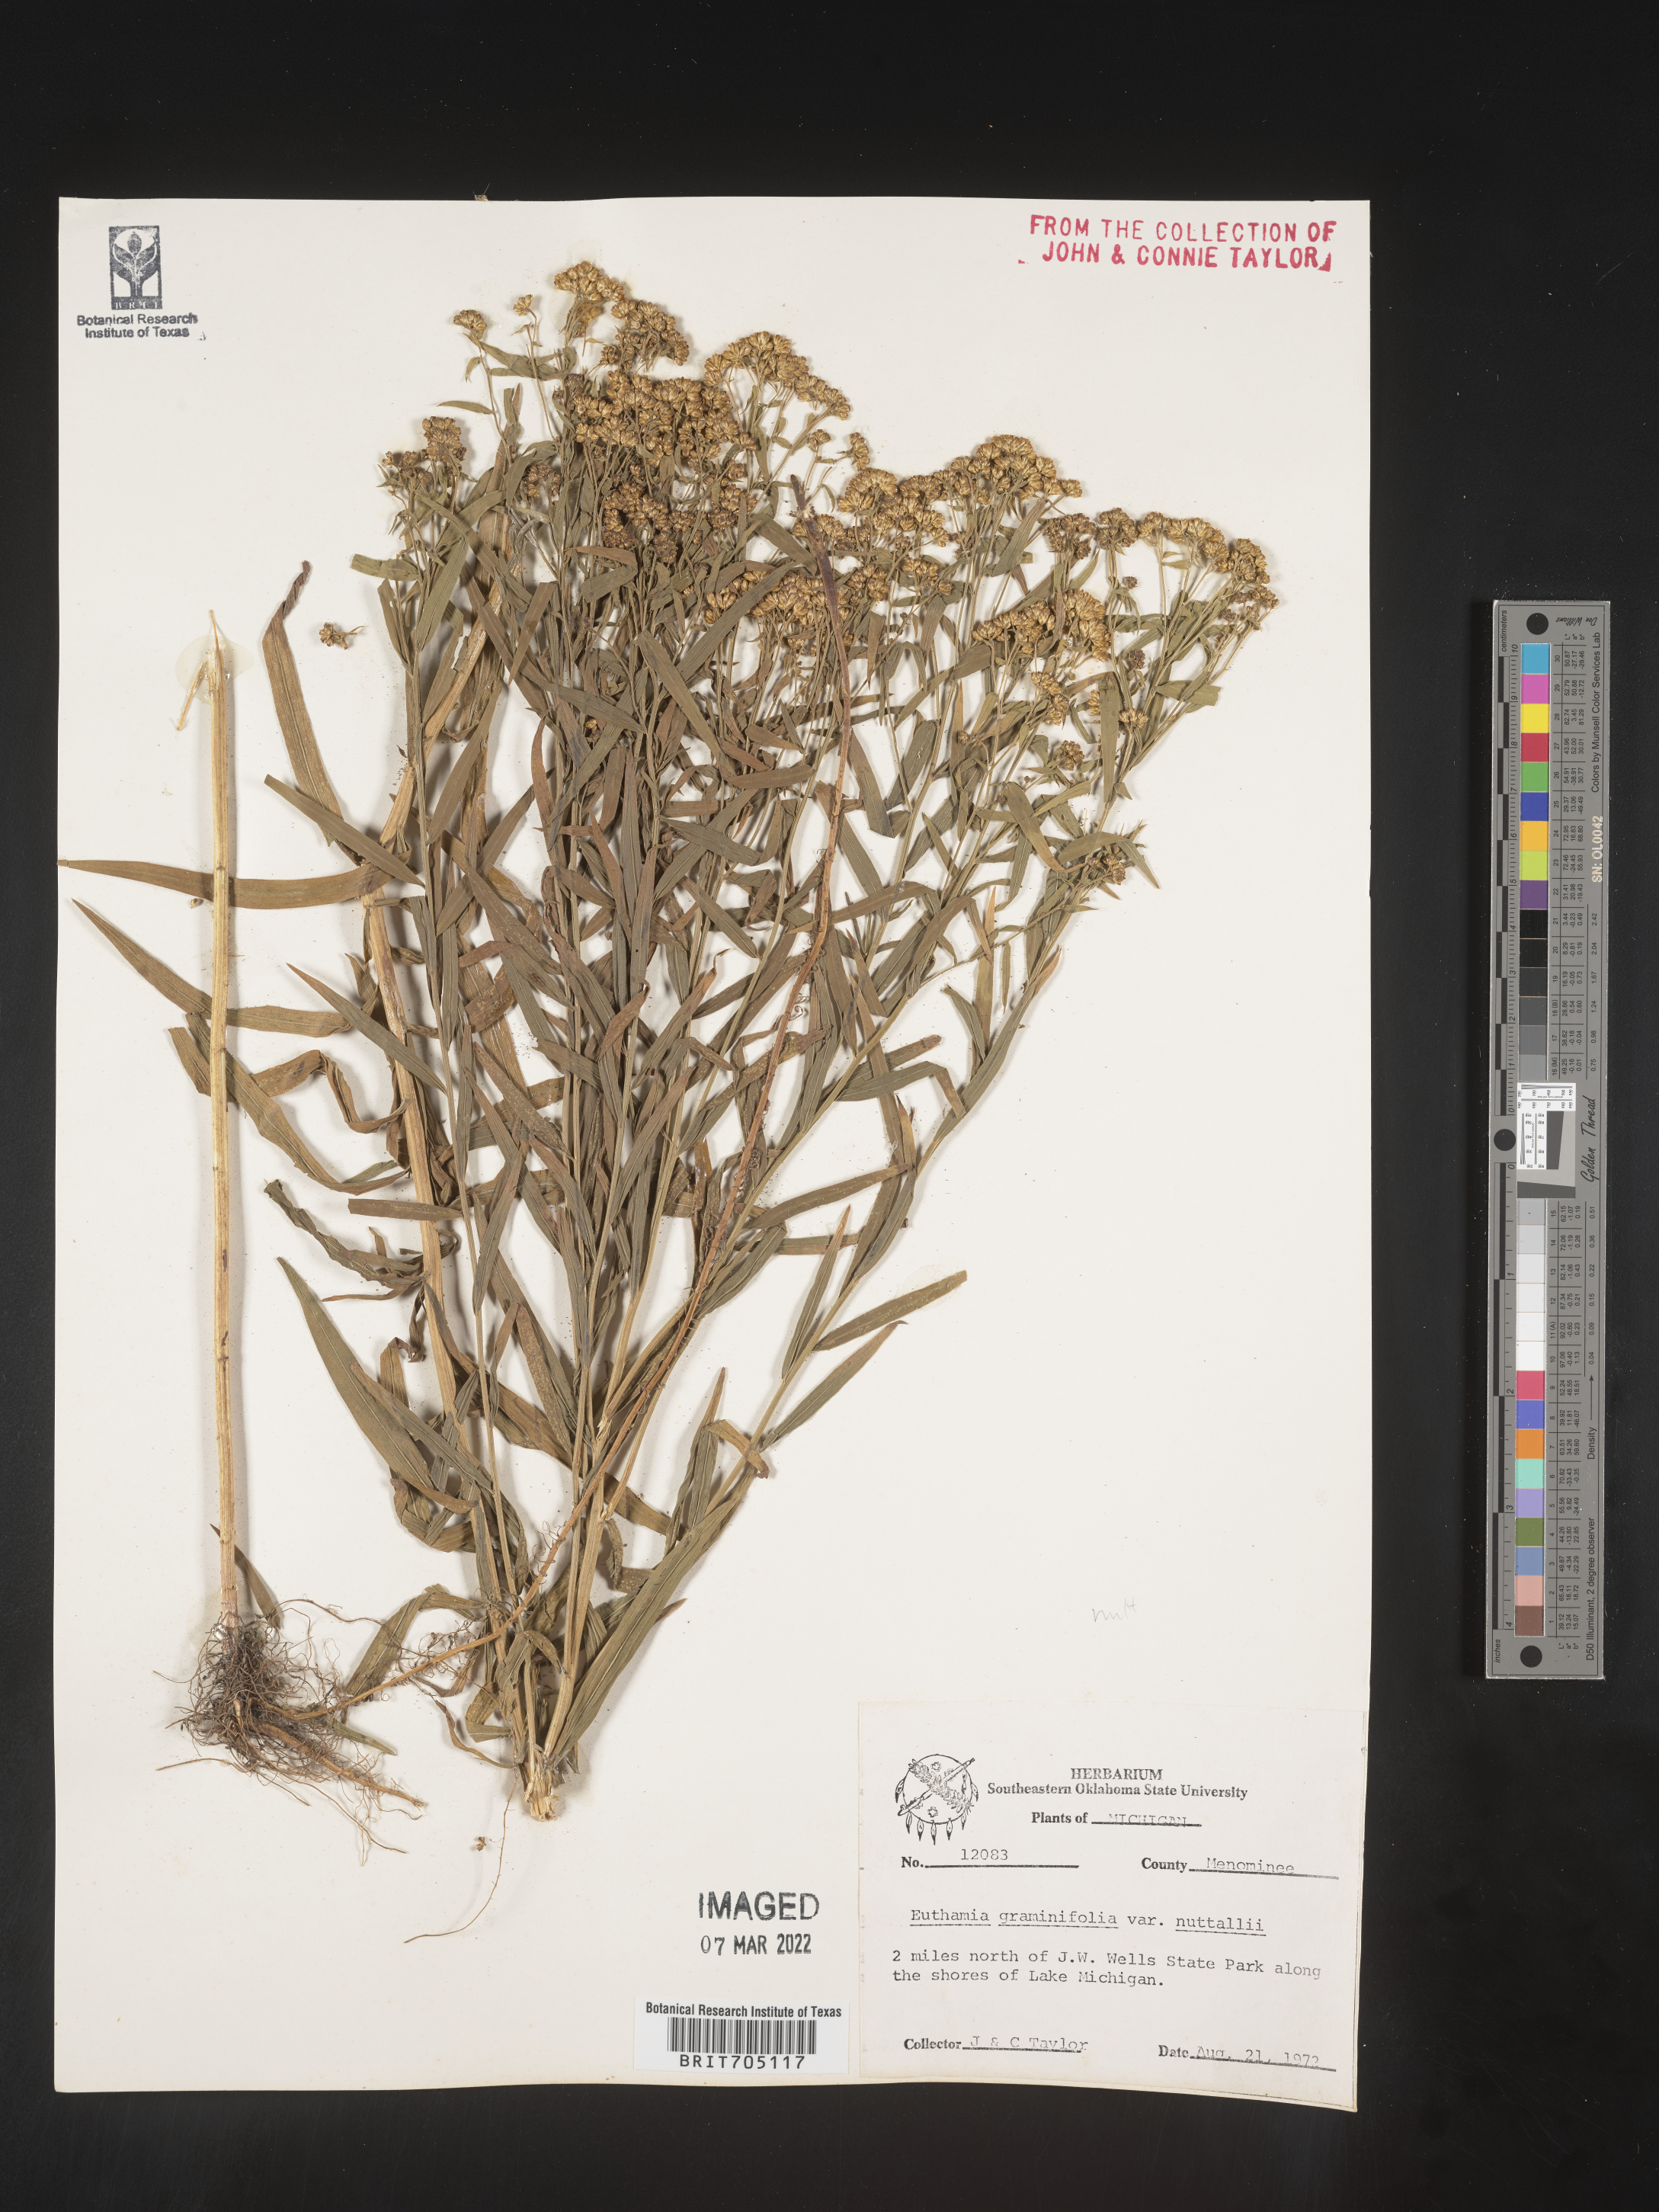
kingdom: Plantae
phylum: Tracheophyta
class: Magnoliopsida
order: Asterales
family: Asteraceae
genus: Euthamia
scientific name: Euthamia graminifolia
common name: Common goldentop
